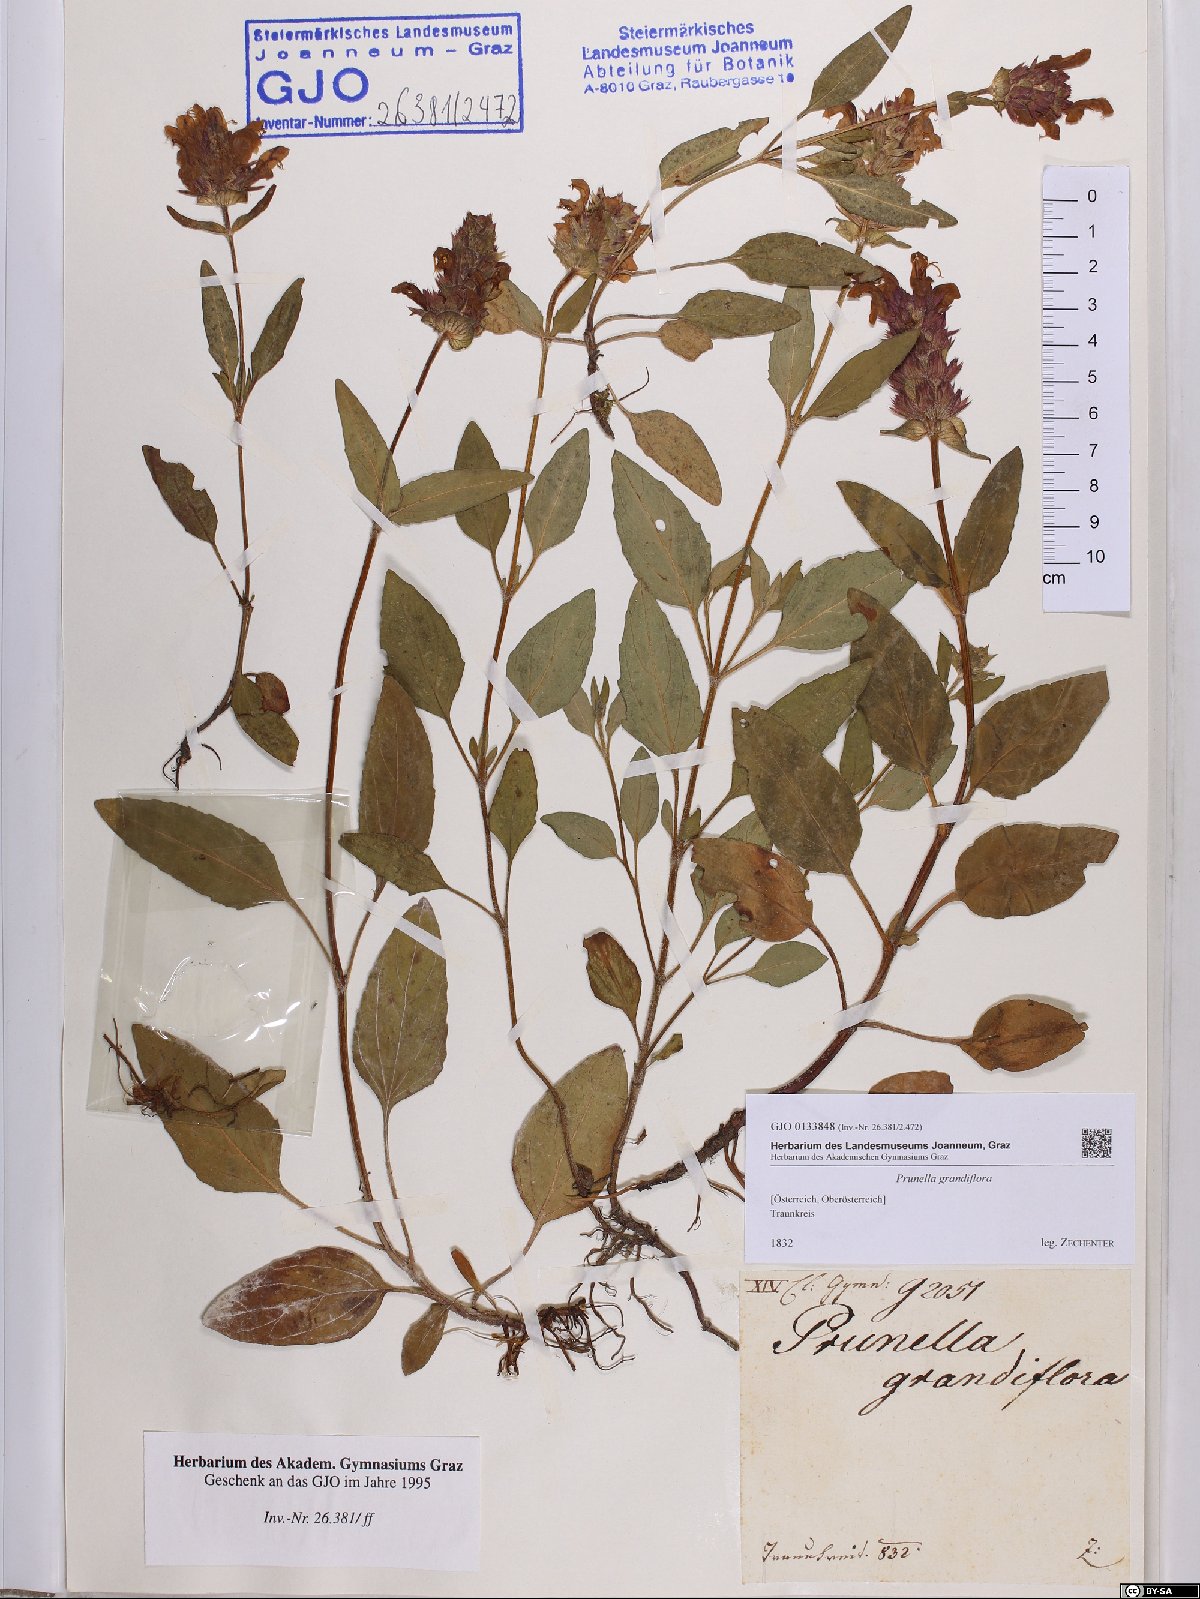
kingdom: Plantae
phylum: Tracheophyta
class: Magnoliopsida
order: Lamiales
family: Lamiaceae
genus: Prunella
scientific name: Prunella grandiflora
